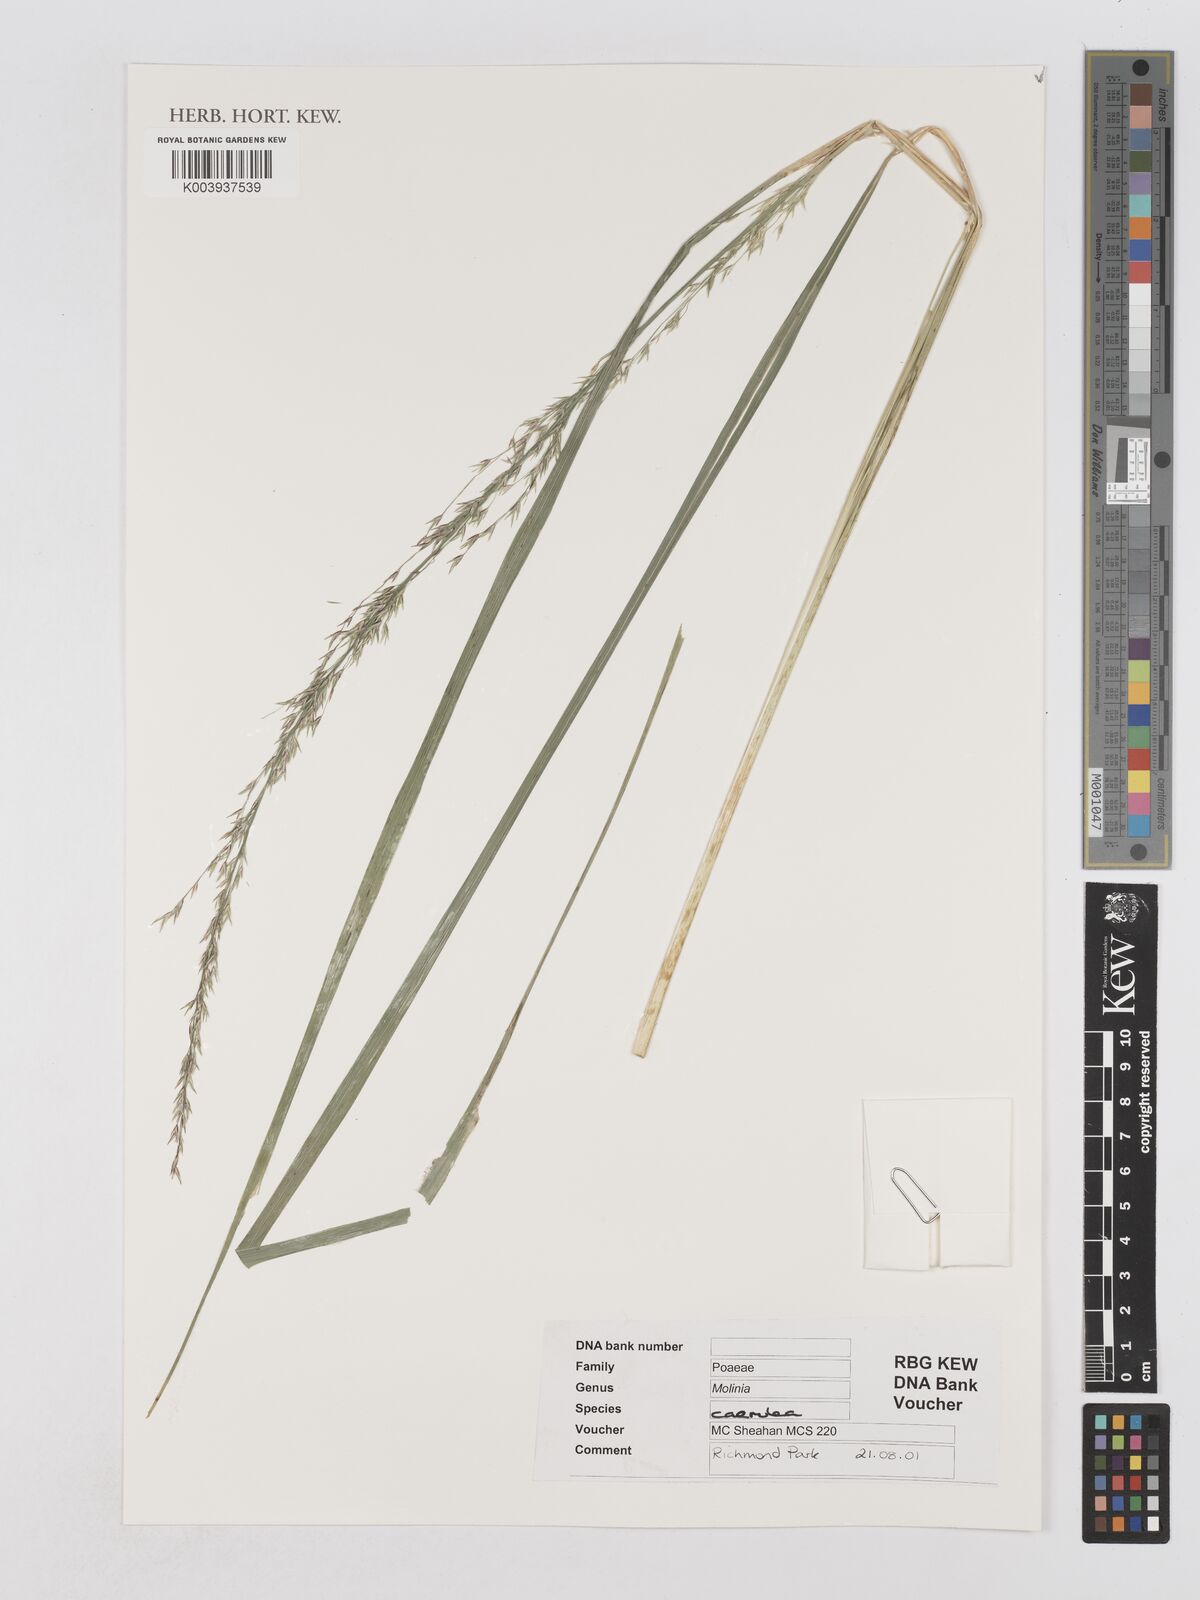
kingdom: Plantae
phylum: Tracheophyta
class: Liliopsida
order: Poales
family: Poaceae
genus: Molinia
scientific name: Molinia
